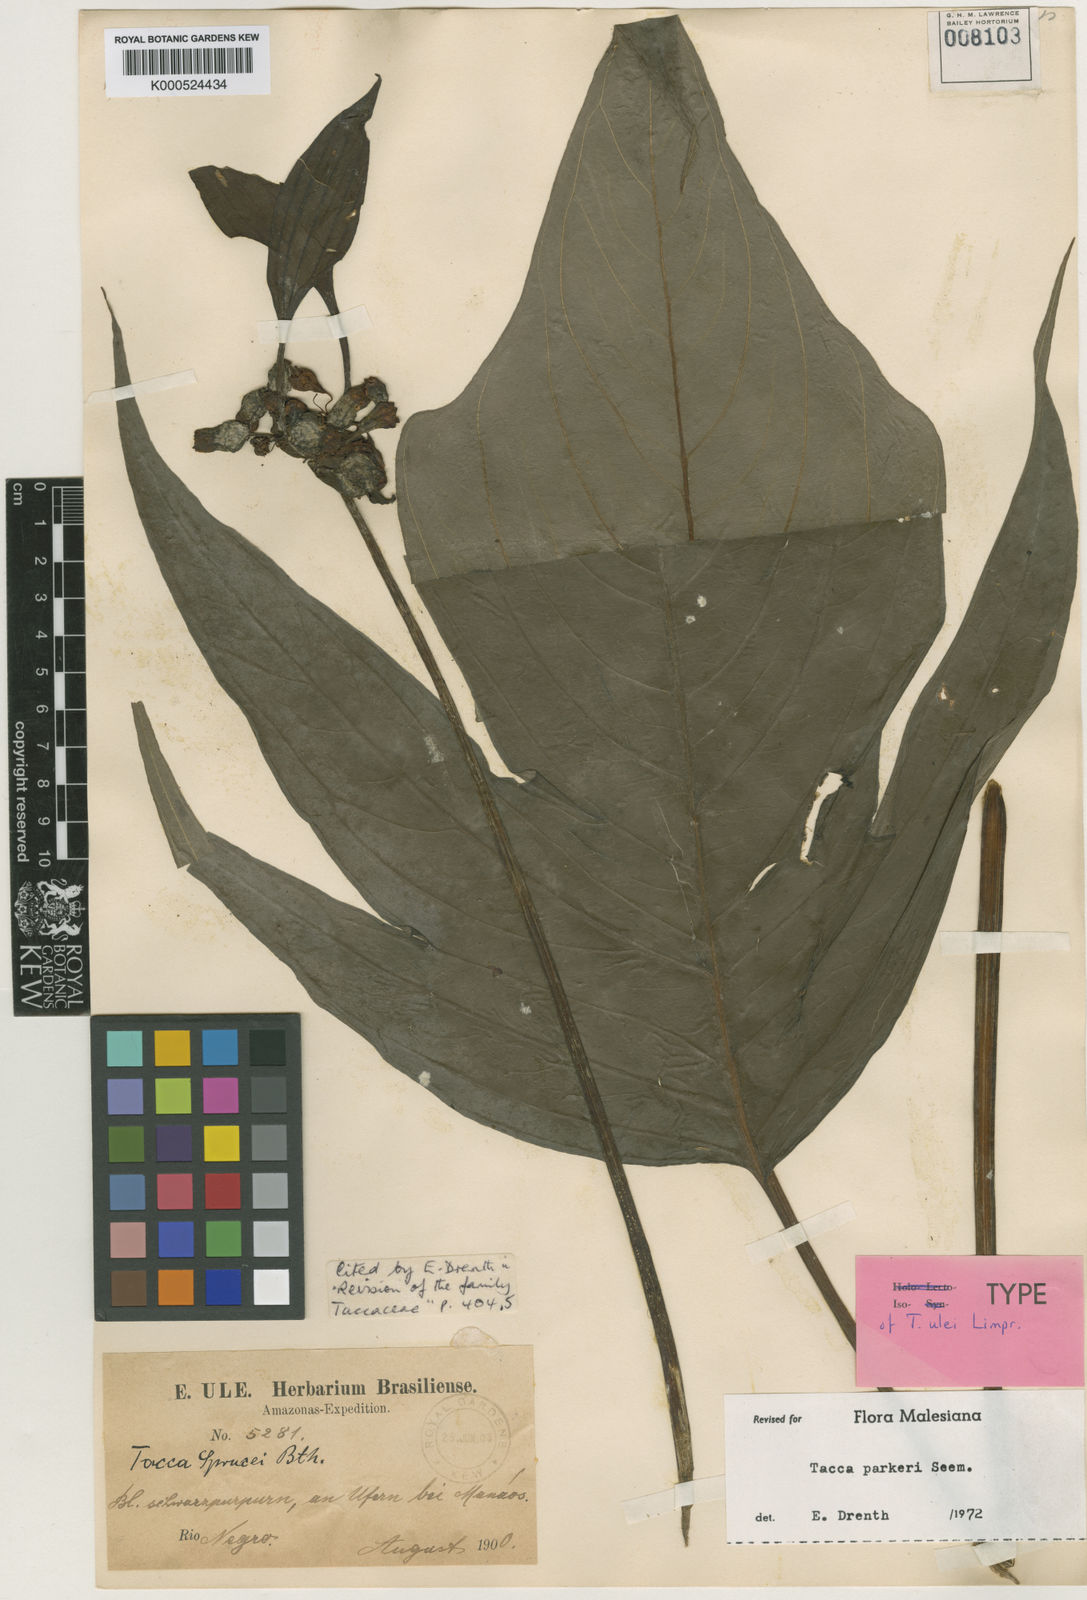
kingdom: Plantae
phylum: Tracheophyta
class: Liliopsida
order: Dioscoreales
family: Dioscoreaceae
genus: Tacca
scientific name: Tacca parkeri
